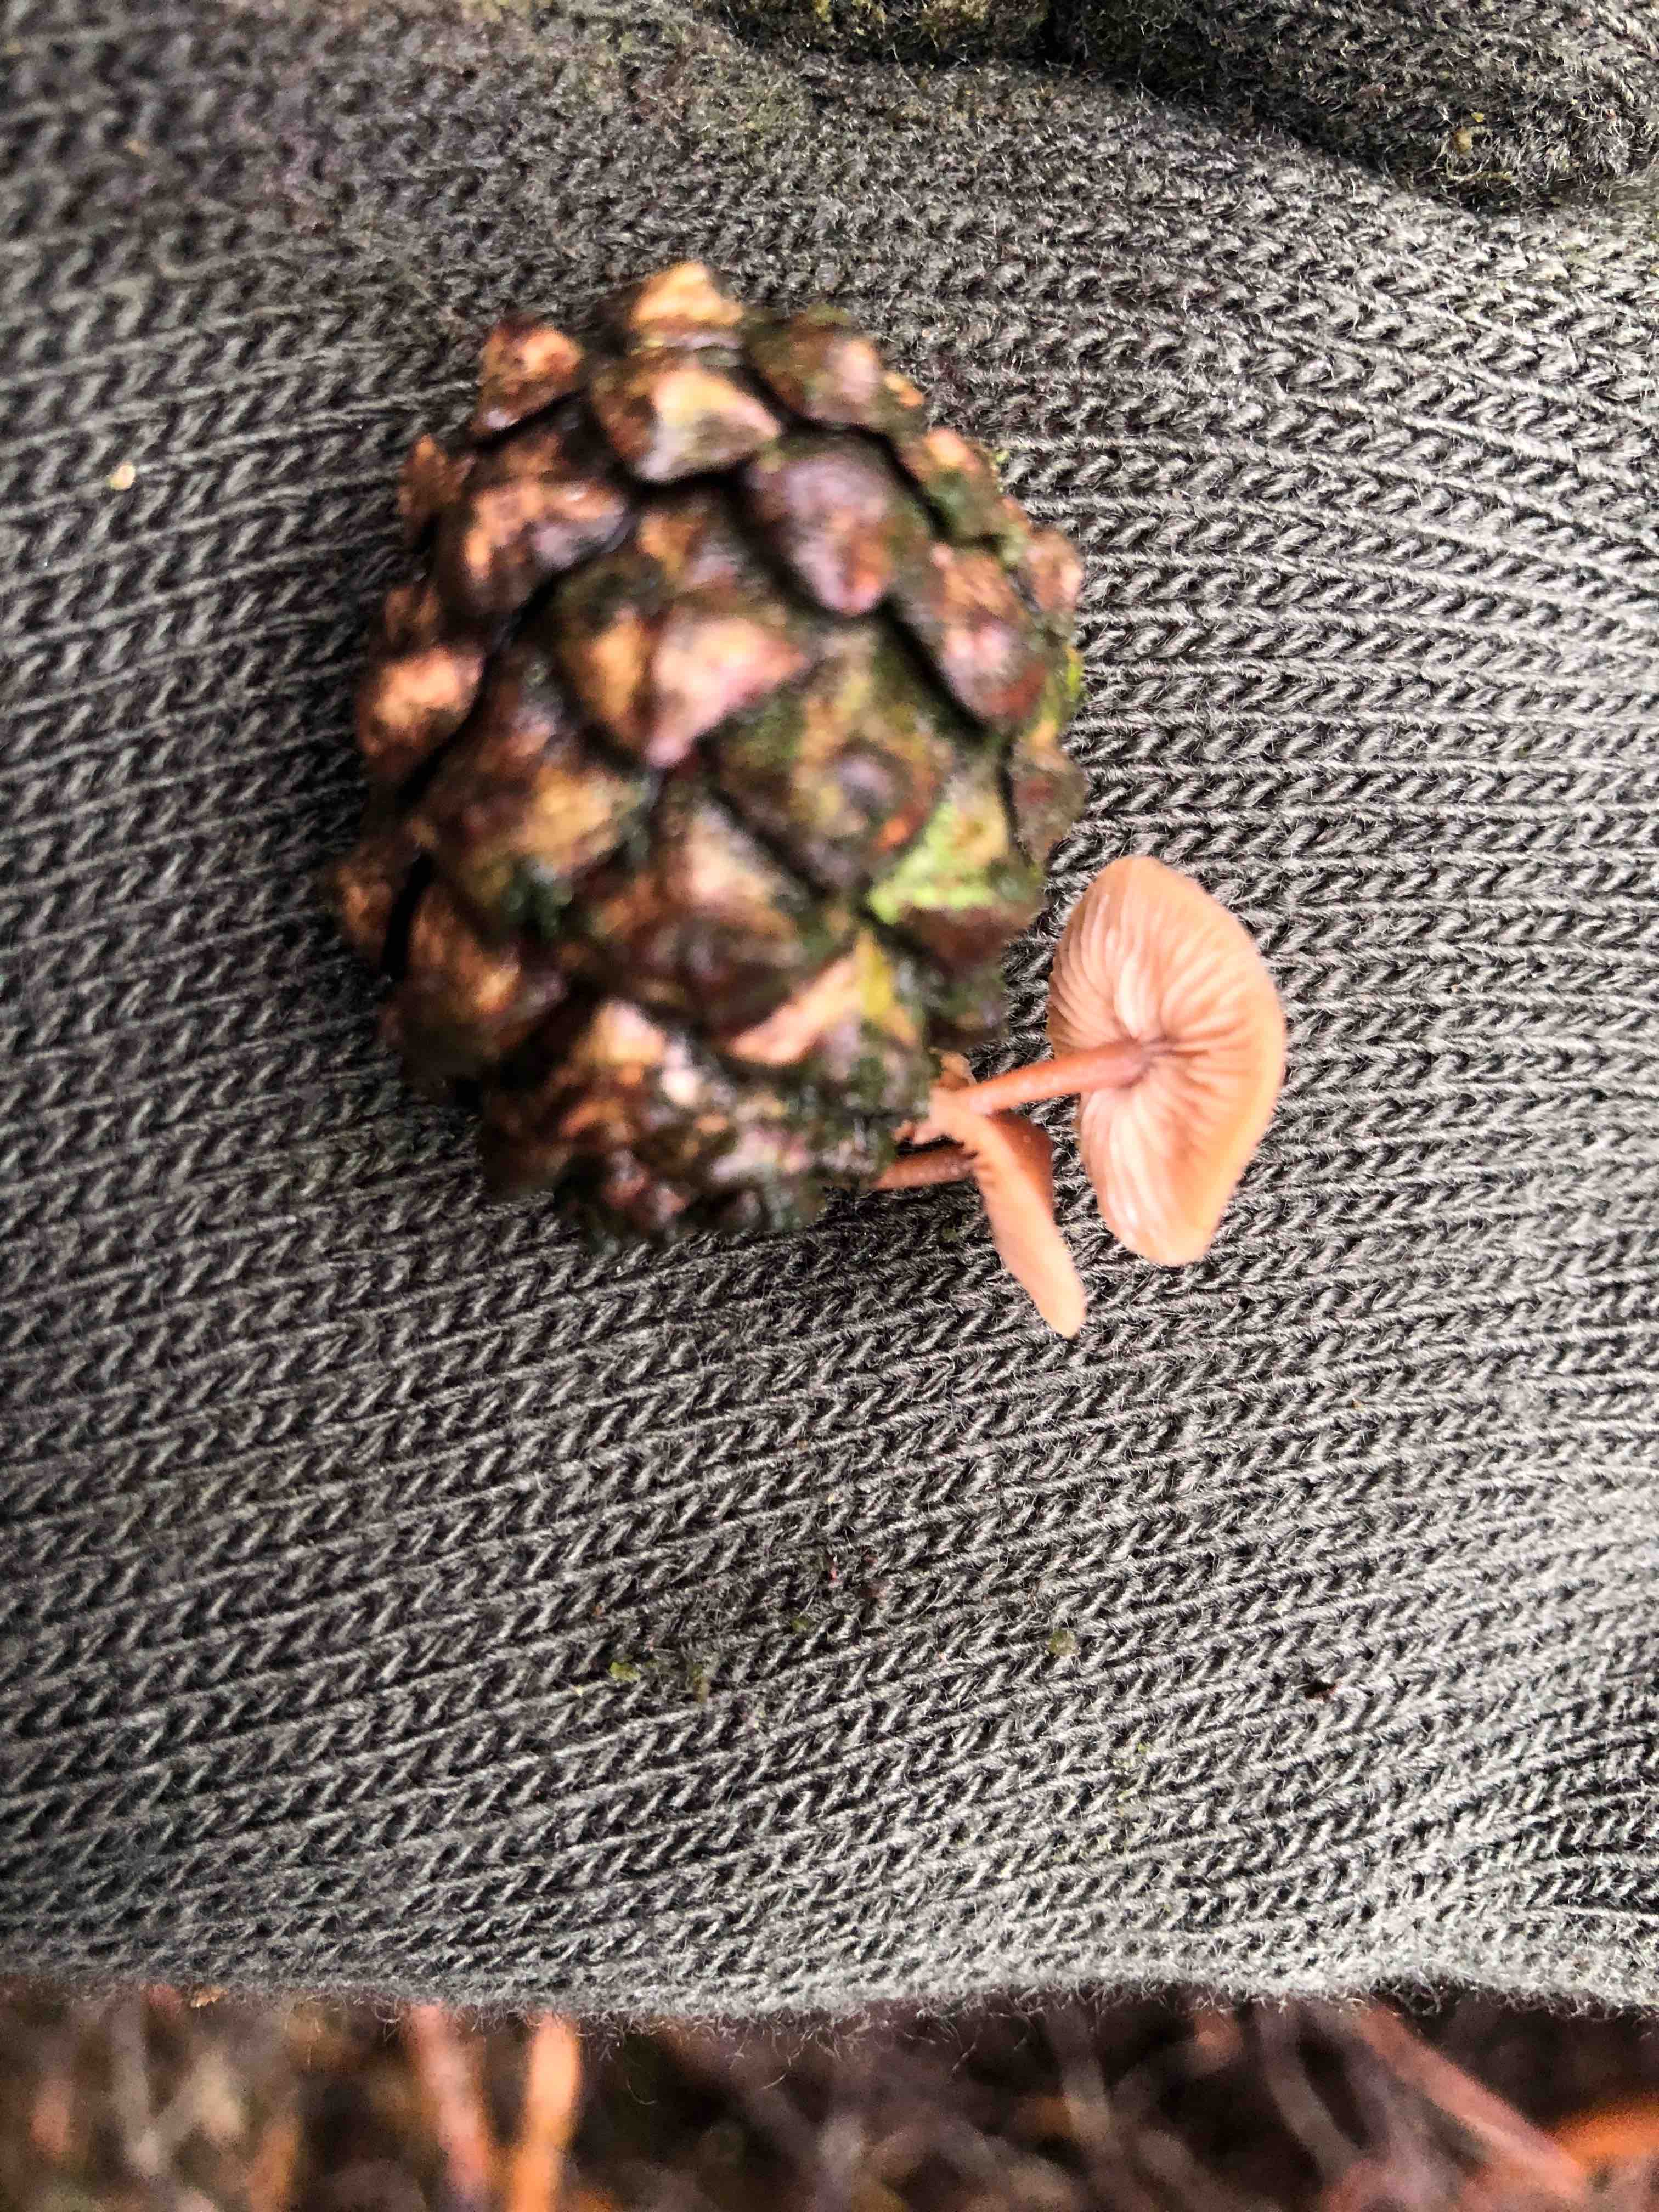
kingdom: Fungi
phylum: Basidiomycota
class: Agaricomycetes
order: Agaricales
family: Marasmiaceae
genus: Baeospora
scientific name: Baeospora myosura
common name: koglebruskhat
